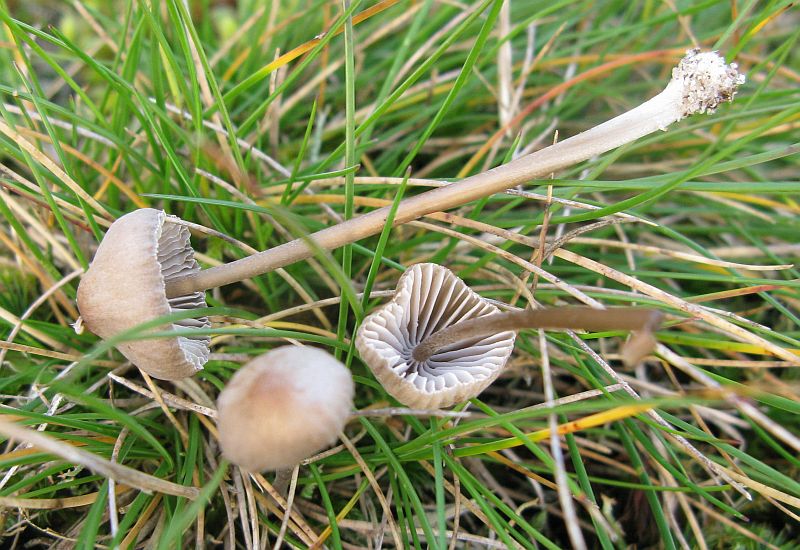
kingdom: Fungi
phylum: Basidiomycota
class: Agaricomycetes
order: Agaricales
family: Mycenaceae
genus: Mycena
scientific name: Mycena aetites
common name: plæne-huesvamp
